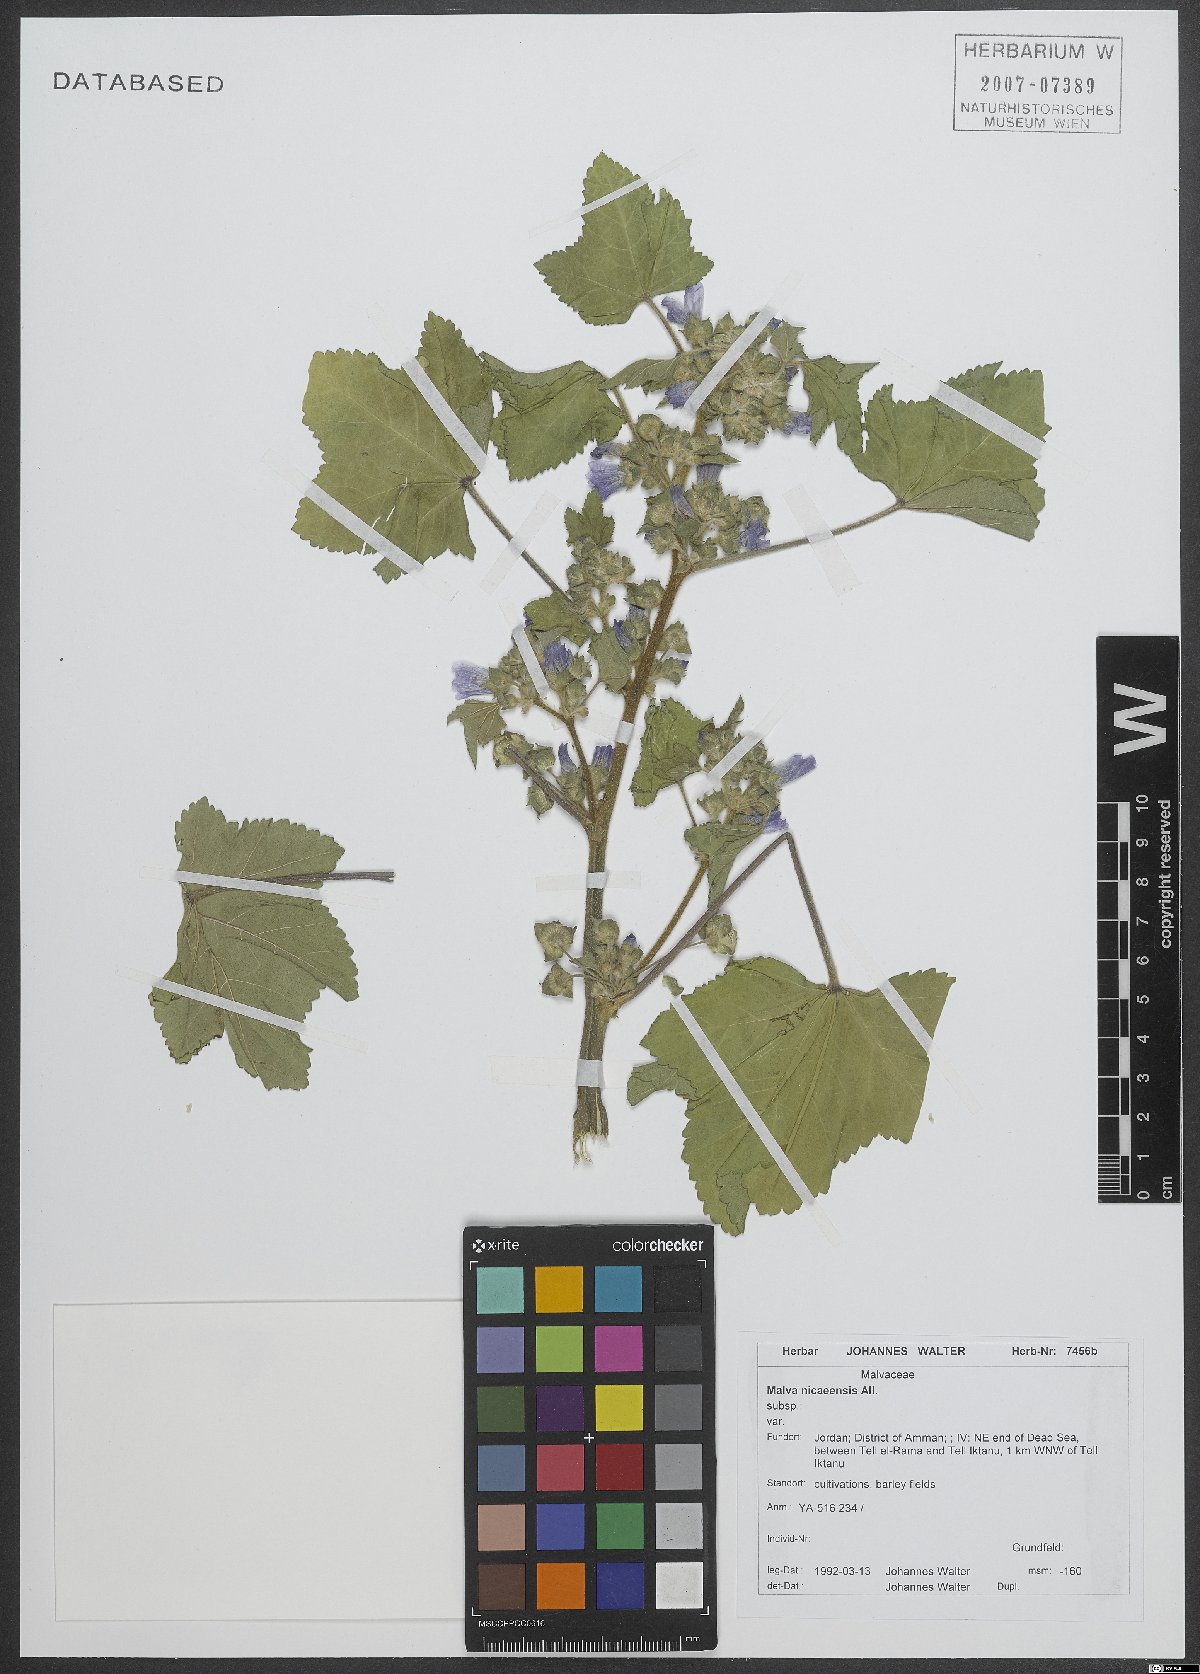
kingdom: Plantae
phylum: Tracheophyta
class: Magnoliopsida
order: Malvales
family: Malvaceae
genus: Malva
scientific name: Malva nicaeensis
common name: French mallow
